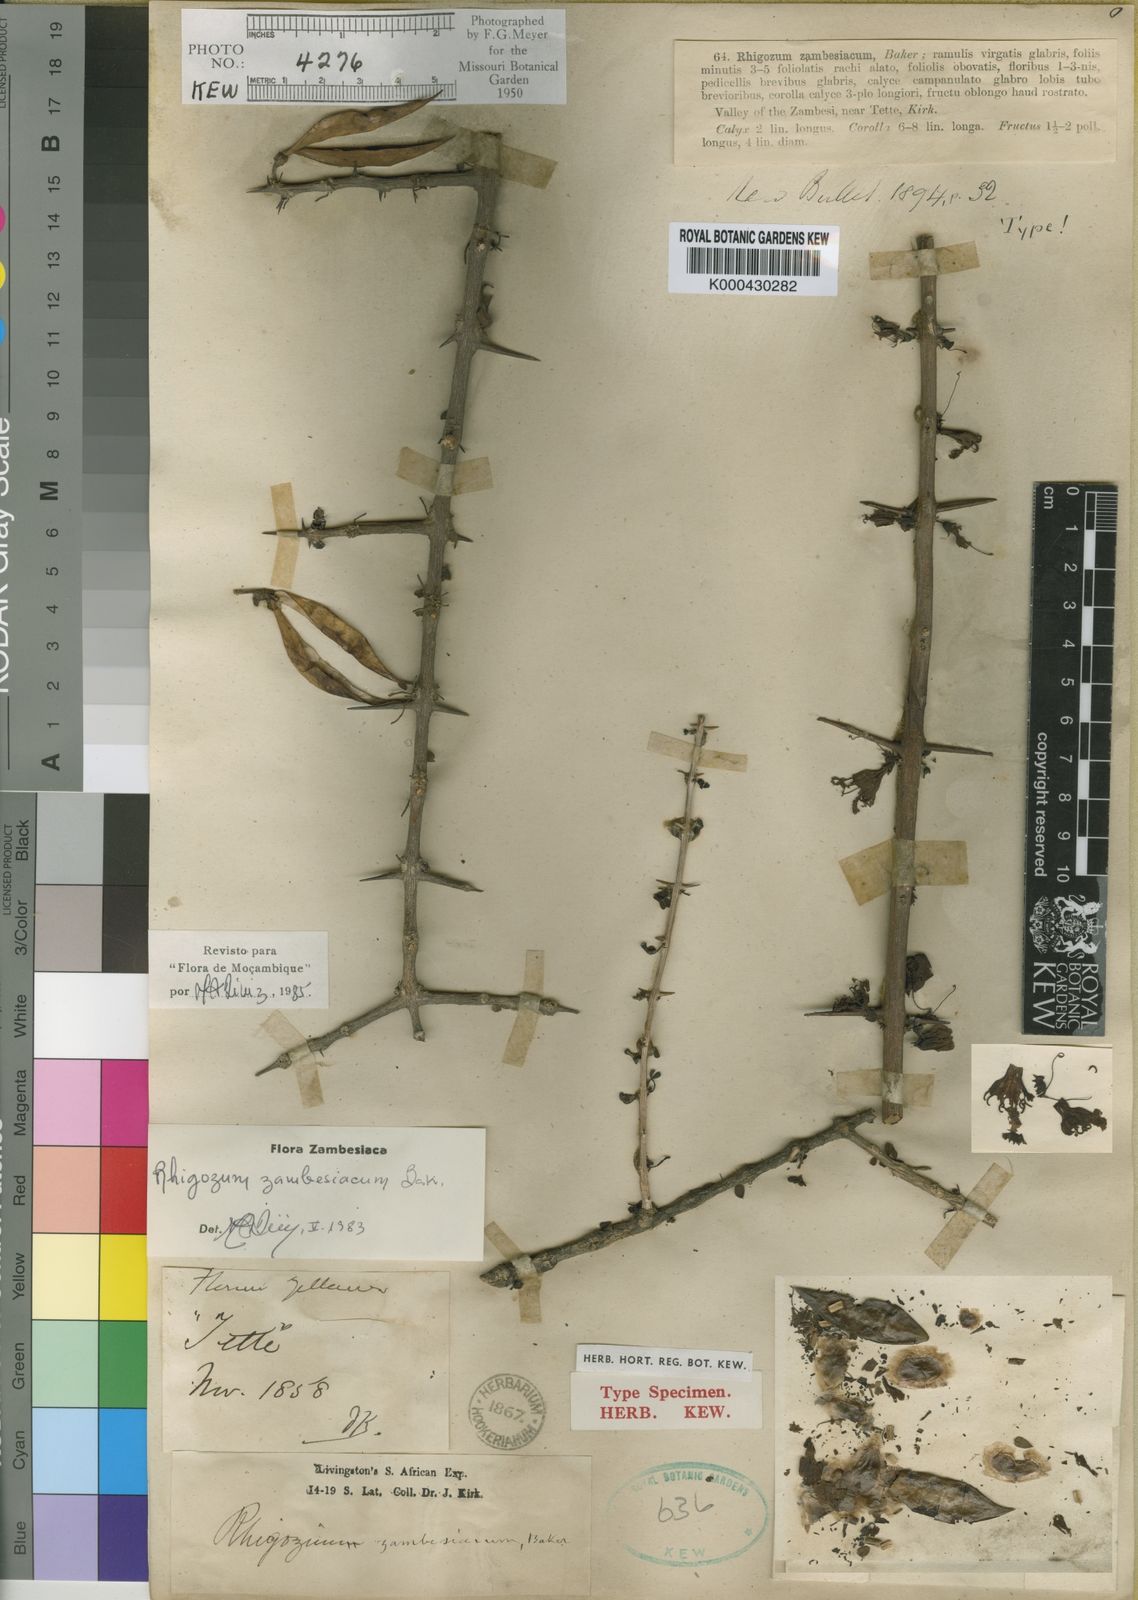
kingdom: Plantae
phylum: Tracheophyta
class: Magnoliopsida
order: Lamiales
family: Bignoniaceae
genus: Rhigozum
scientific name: Rhigozum zambesiacum
